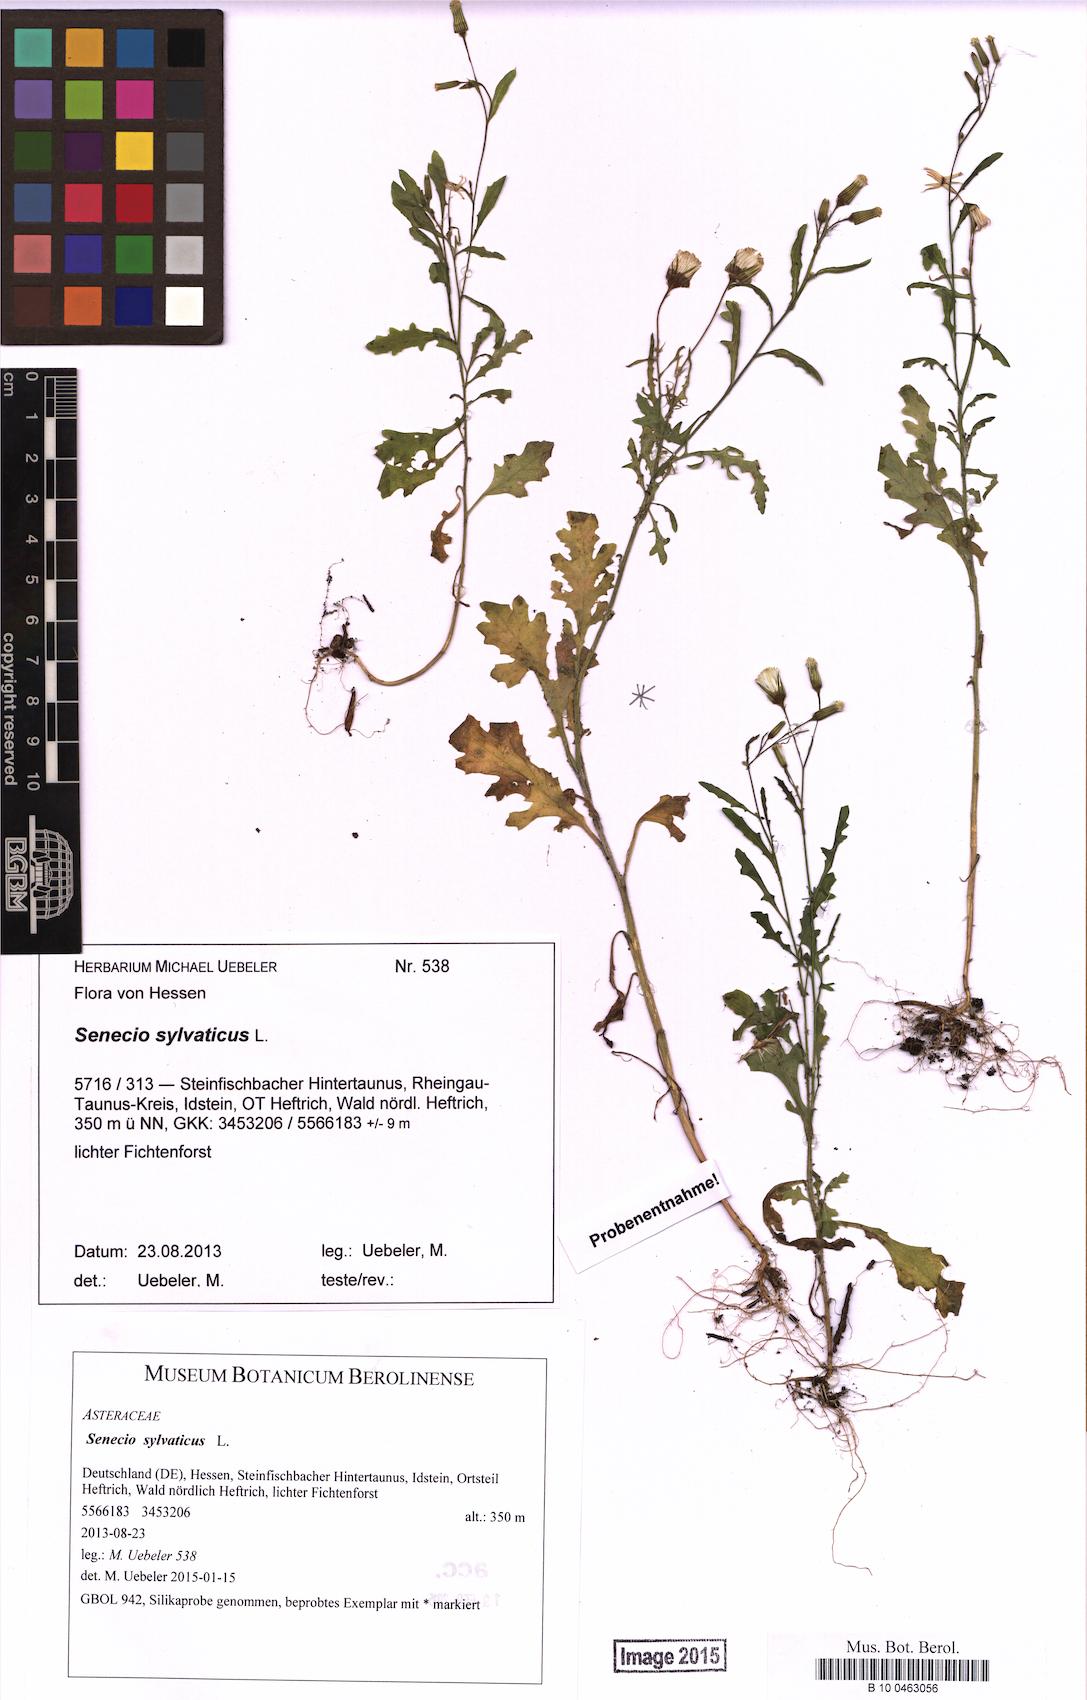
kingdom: Plantae
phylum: Tracheophyta
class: Magnoliopsida
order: Asterales
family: Asteraceae
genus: Senecio
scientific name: Senecio sylvaticus
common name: Woodland ragwort
